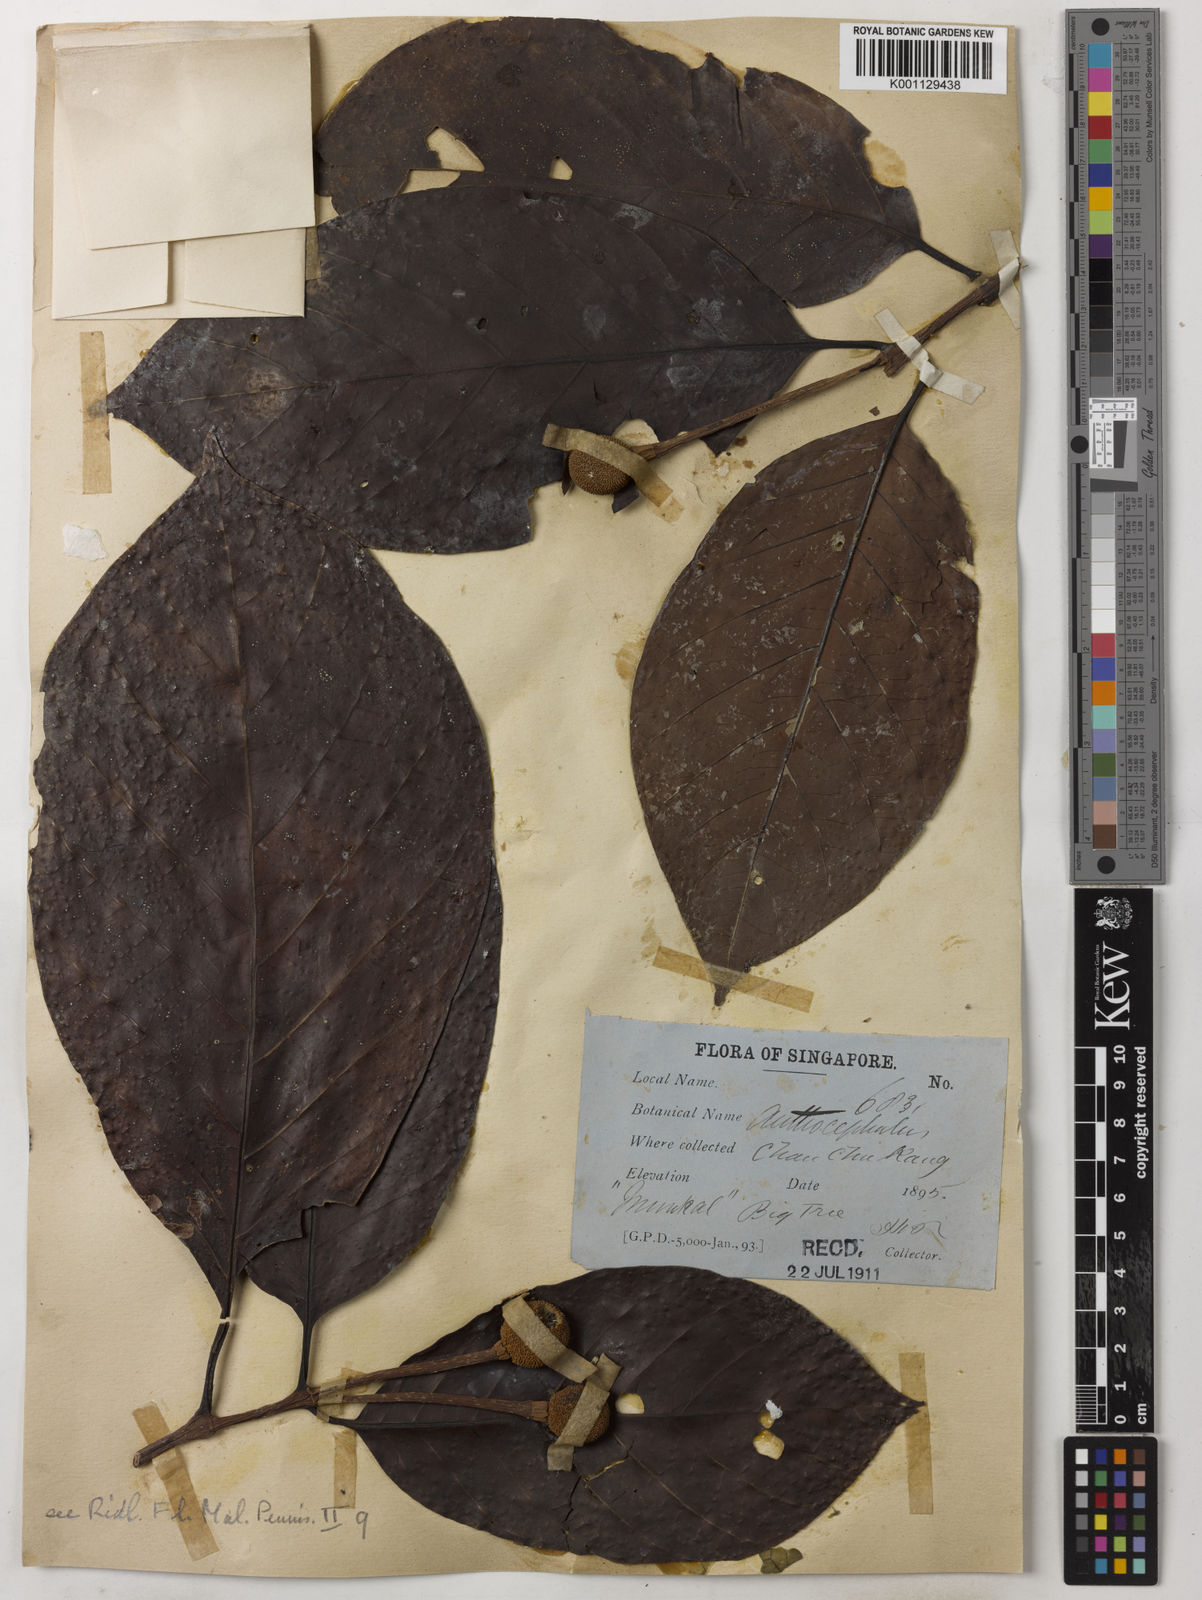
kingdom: Plantae
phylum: Tracheophyta
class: Magnoliopsida
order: Gentianales
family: Rubiaceae
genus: Neonauclea
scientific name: Neonauclea calycina
